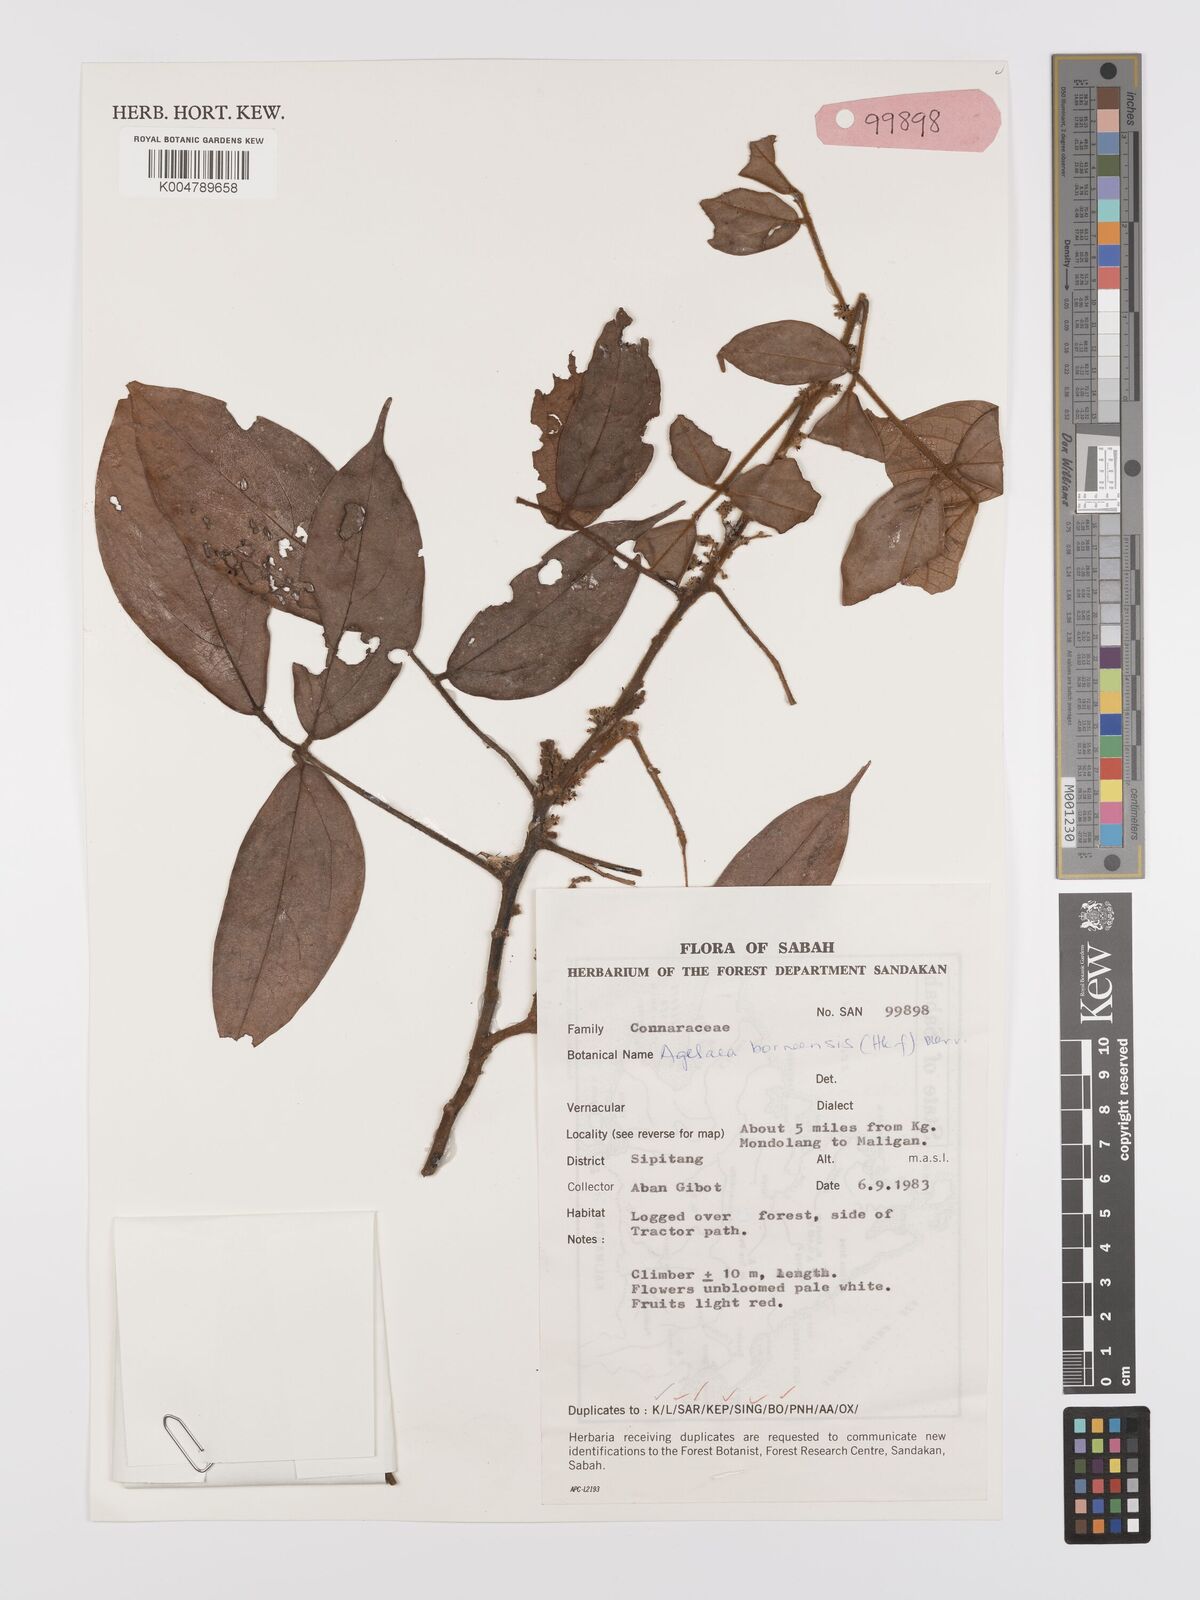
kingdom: Plantae
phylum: Tracheophyta
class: Magnoliopsida
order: Oxalidales
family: Connaraceae
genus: Agelaea
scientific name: Agelaea borneensis
